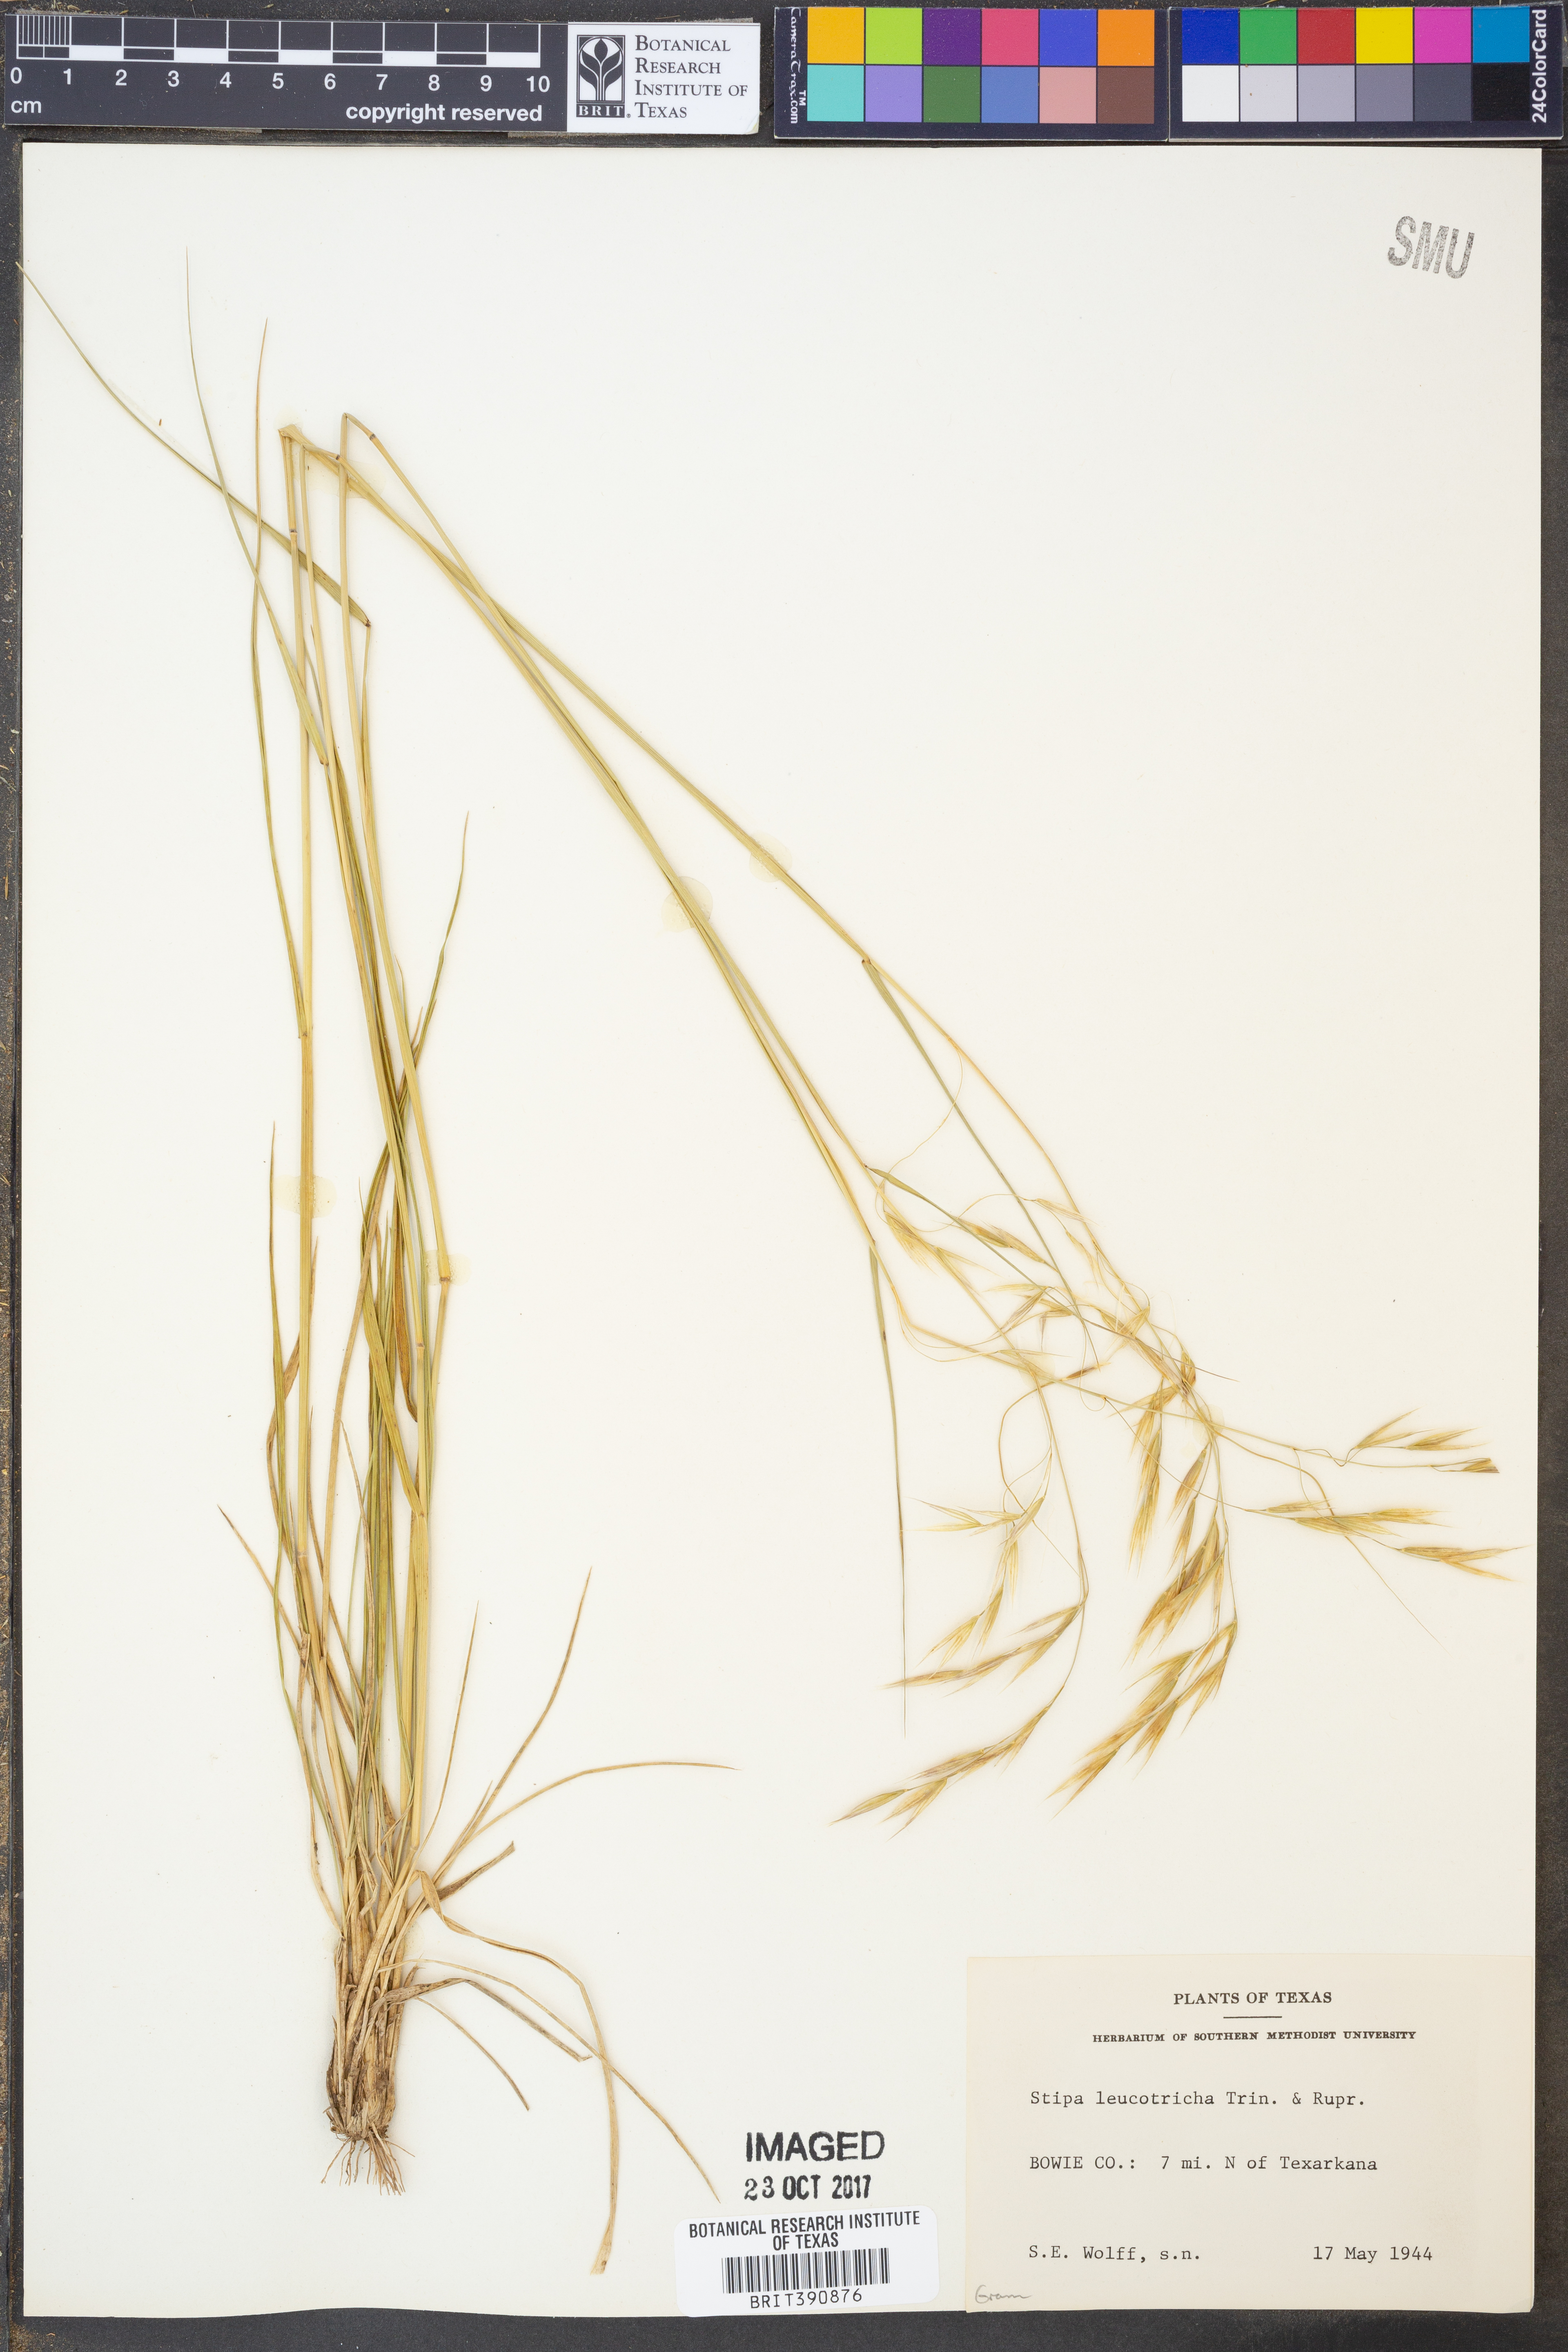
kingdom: Plantae
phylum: Tracheophyta
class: Liliopsida
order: Poales
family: Poaceae
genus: Nassella
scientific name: Nassella leucotricha
